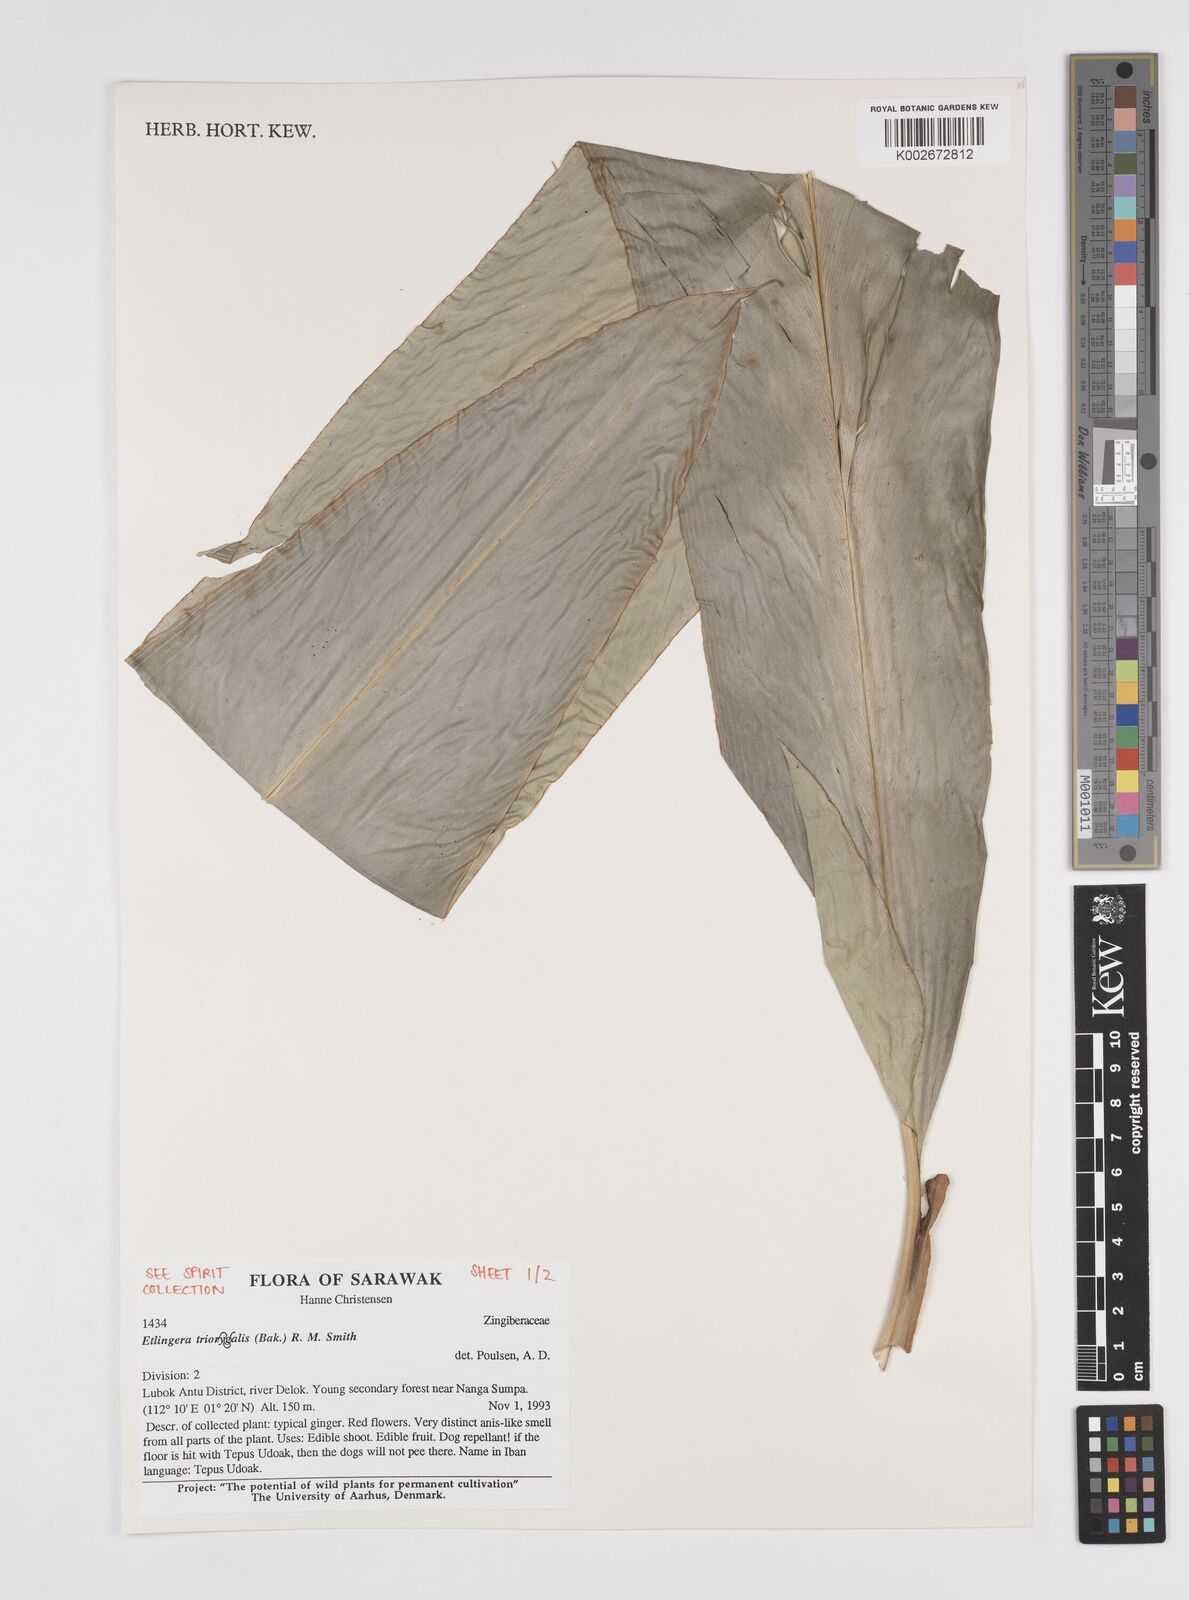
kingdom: Plantae
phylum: Tracheophyta
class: Liliopsida
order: Zingiberales
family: Zingiberaceae
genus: Etlingera
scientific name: Etlingera triorgyalis
